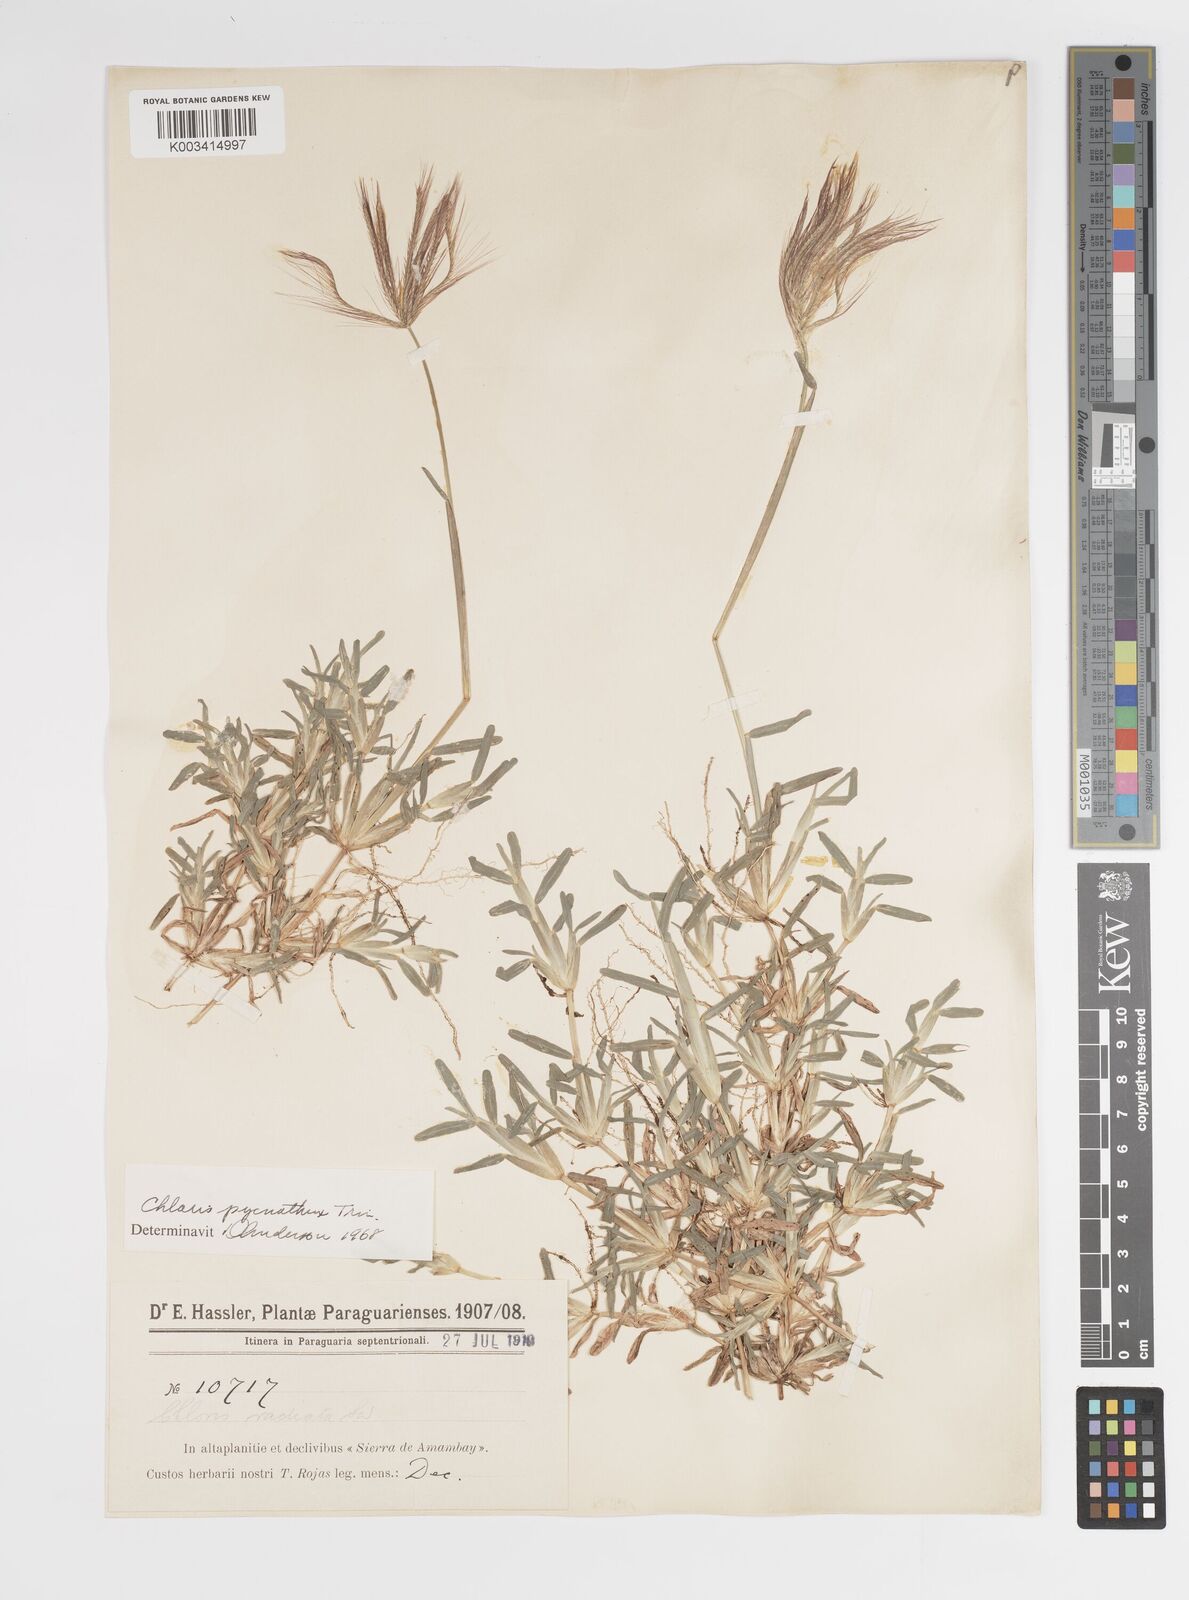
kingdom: Plantae
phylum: Tracheophyta
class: Liliopsida
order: Poales
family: Poaceae
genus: Chloris
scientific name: Chloris pycnothrix
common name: Spiderweb chloris
